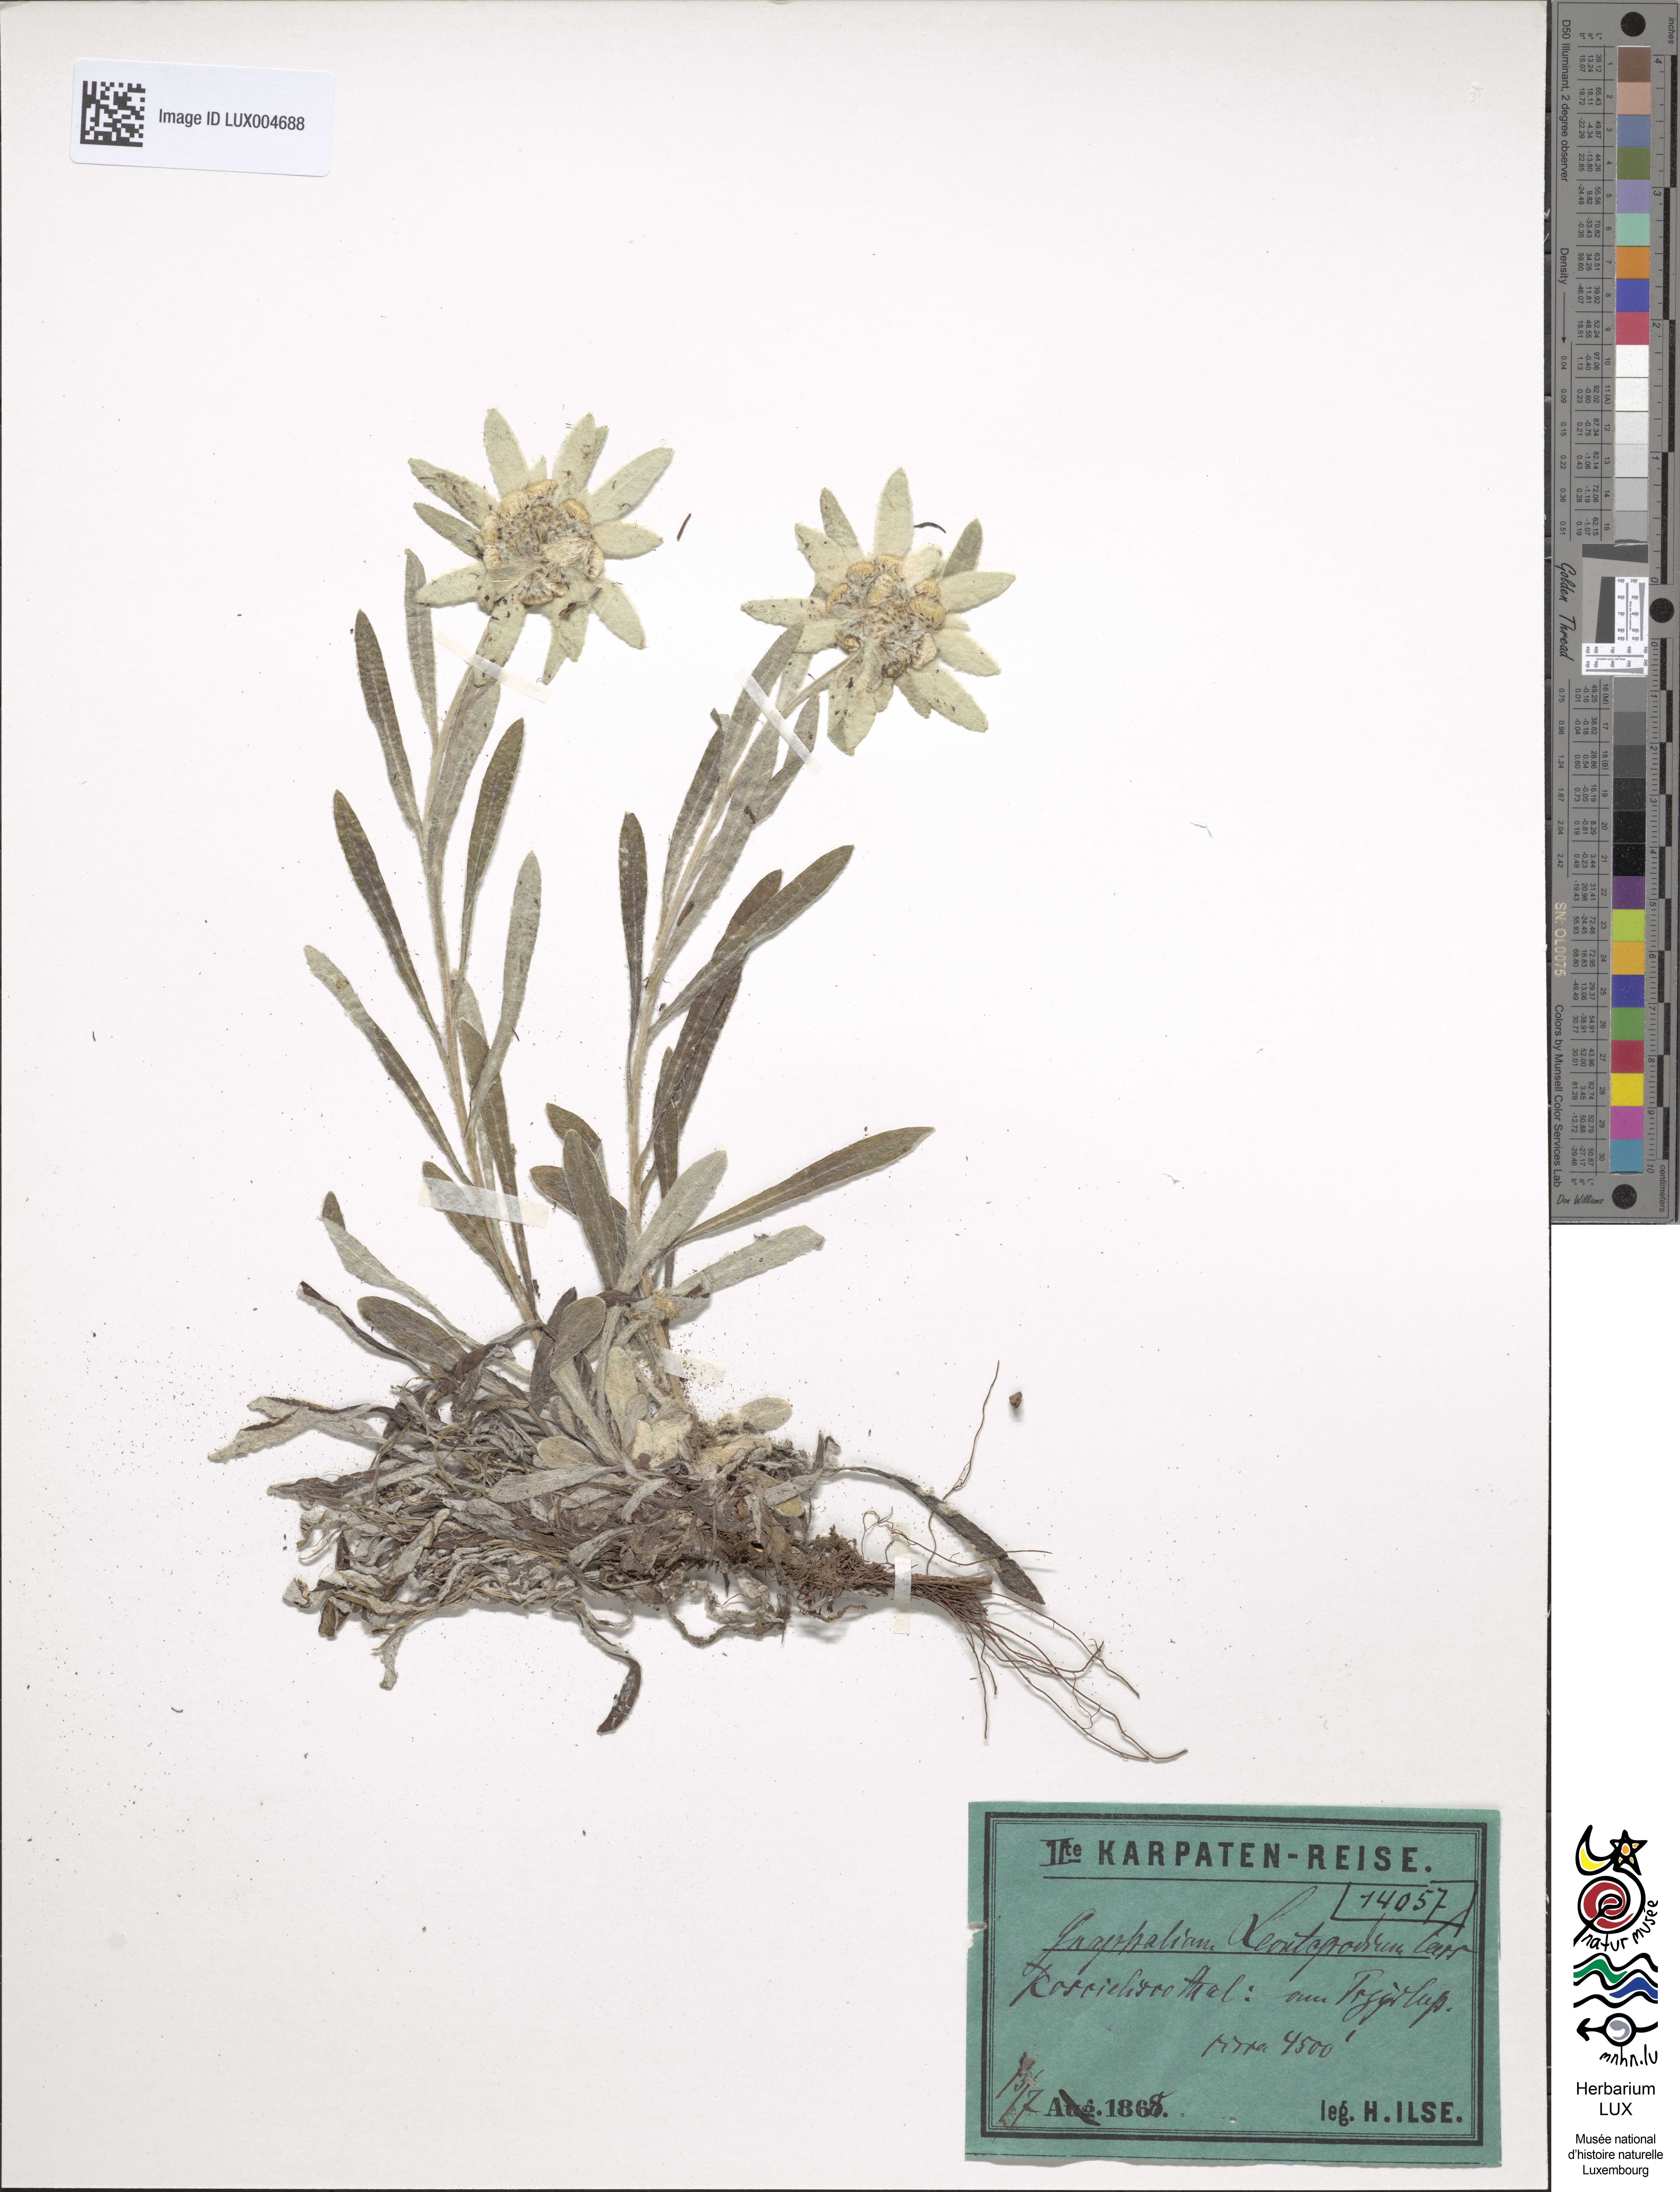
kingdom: Plantae
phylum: Tracheophyta
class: Magnoliopsida
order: Asterales
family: Asteraceae
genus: Leontopodium
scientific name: Leontopodium nivale
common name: Edelweiss
